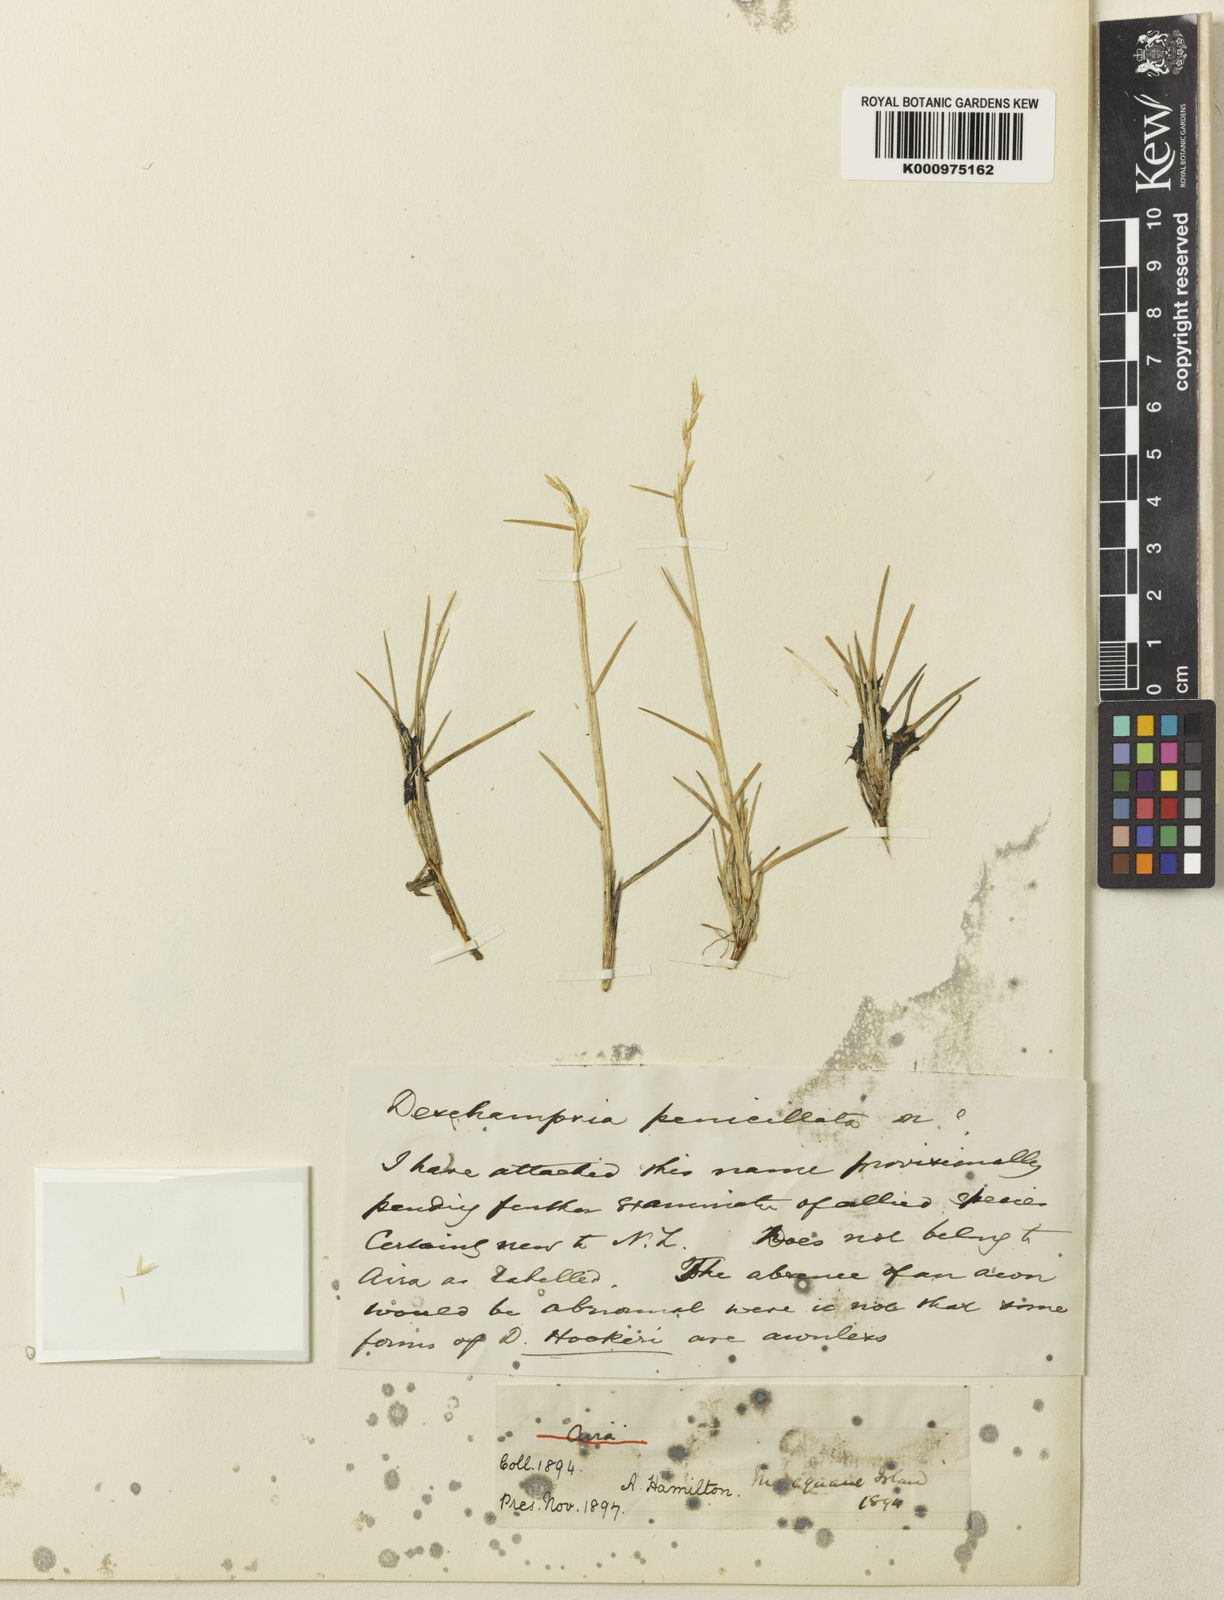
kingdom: Plantae
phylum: Tracheophyta
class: Liliopsida
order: Poales
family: Poaceae
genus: Deschampsia
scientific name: Deschampsia cespitosa
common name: Tufted hair-grass
